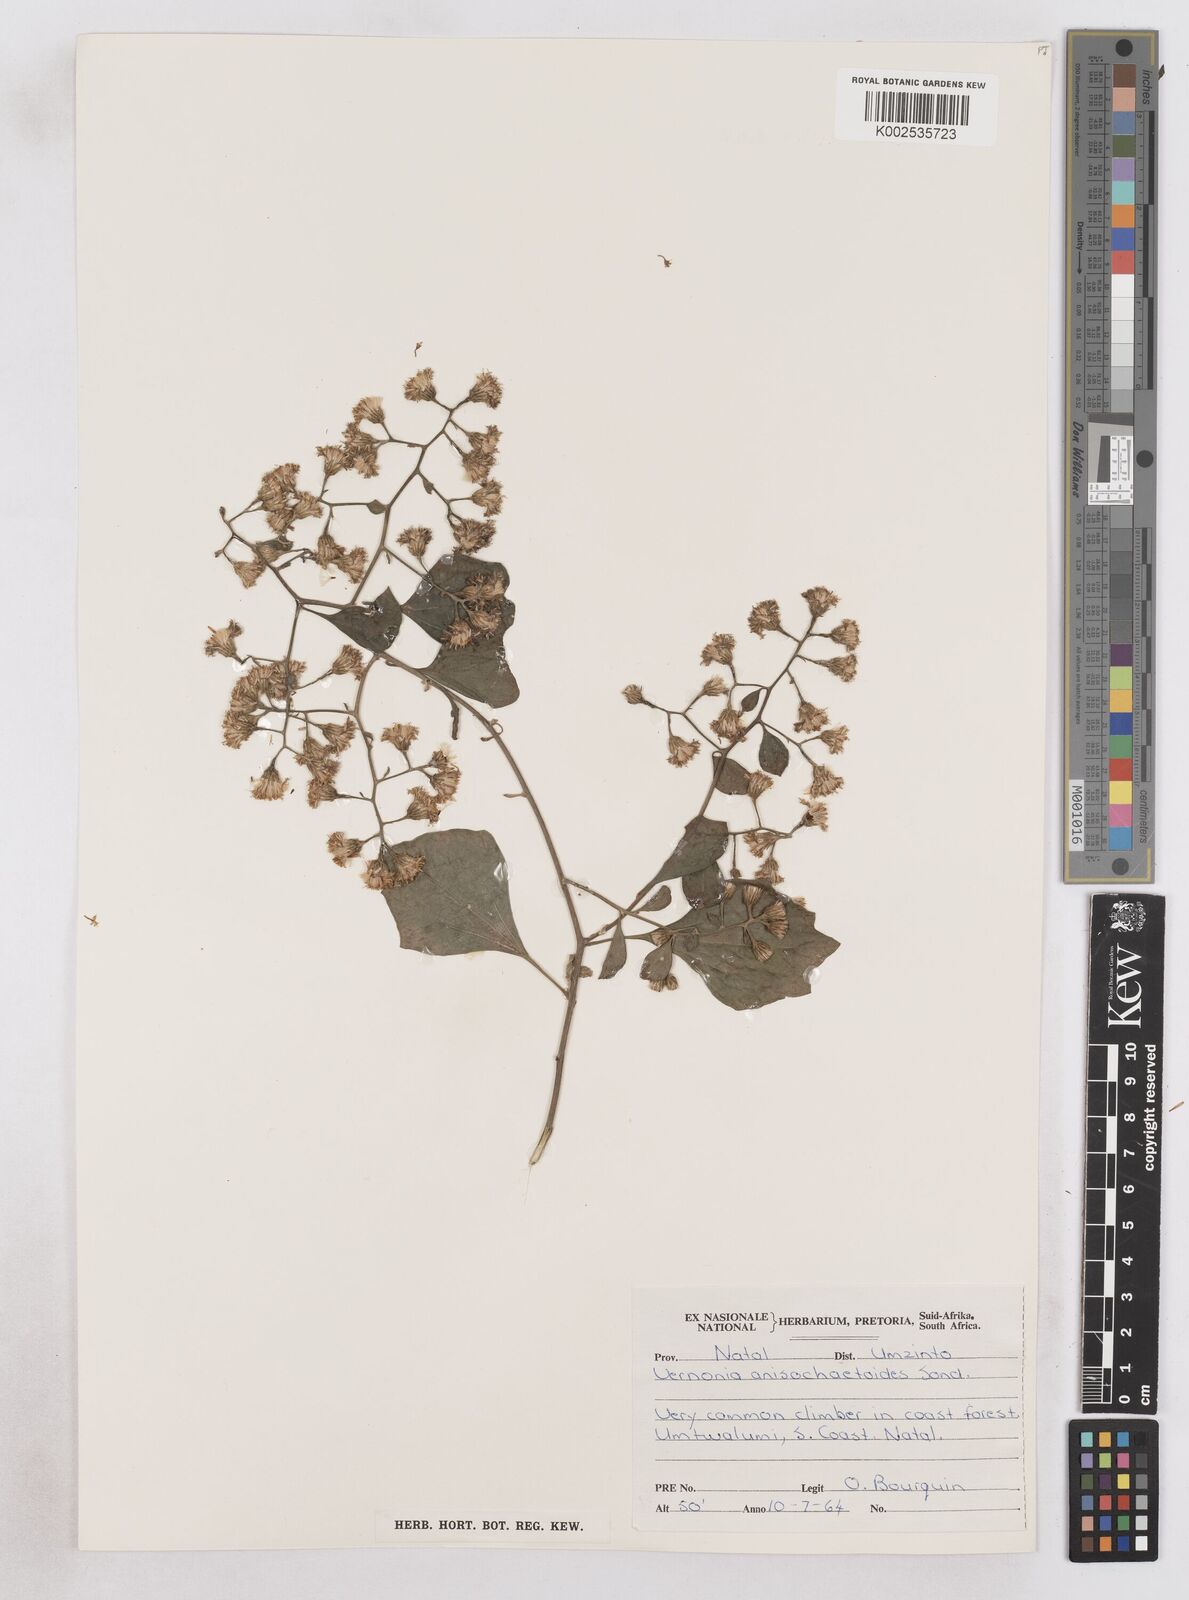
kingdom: Plantae
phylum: Tracheophyta
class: Magnoliopsida
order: Asterales
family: Asteraceae
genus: Distephanus
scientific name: Distephanus anisochaetoides
